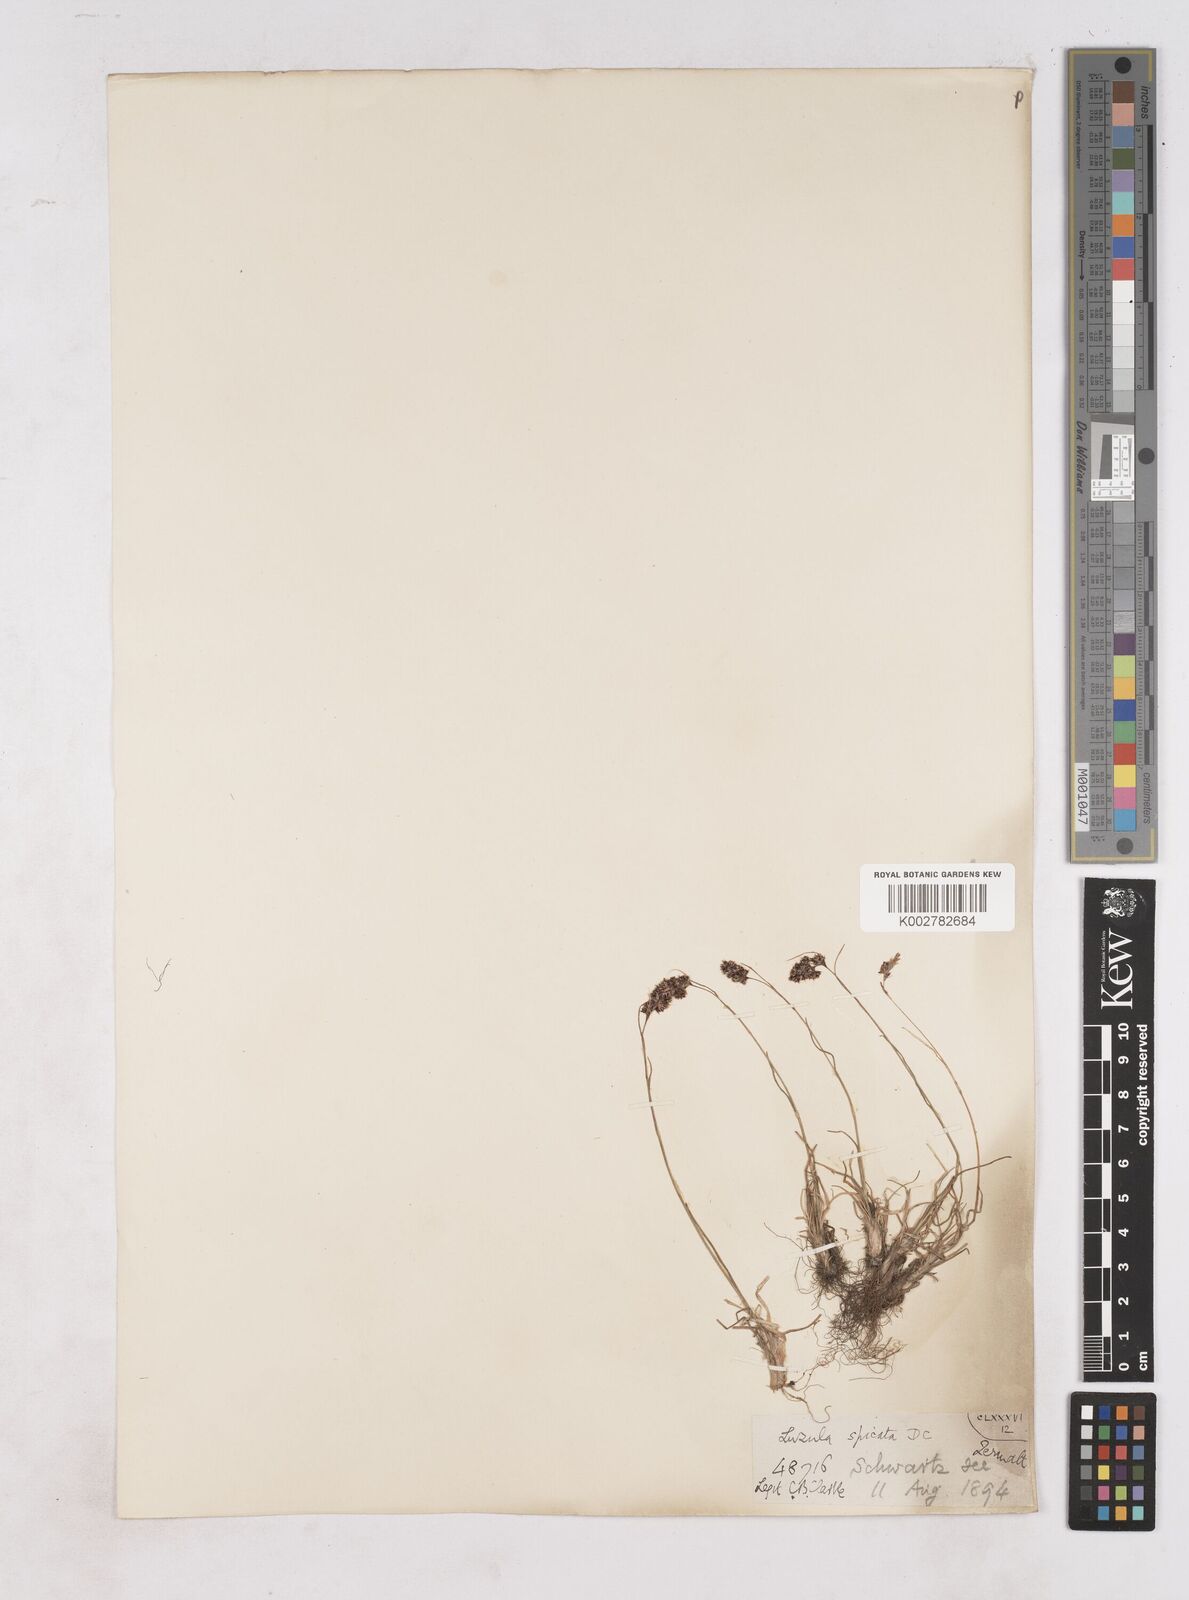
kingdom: Plantae
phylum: Tracheophyta
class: Liliopsida
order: Poales
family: Juncaceae
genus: Luzula
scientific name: Luzula spicata
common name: Spiked wood-rush
